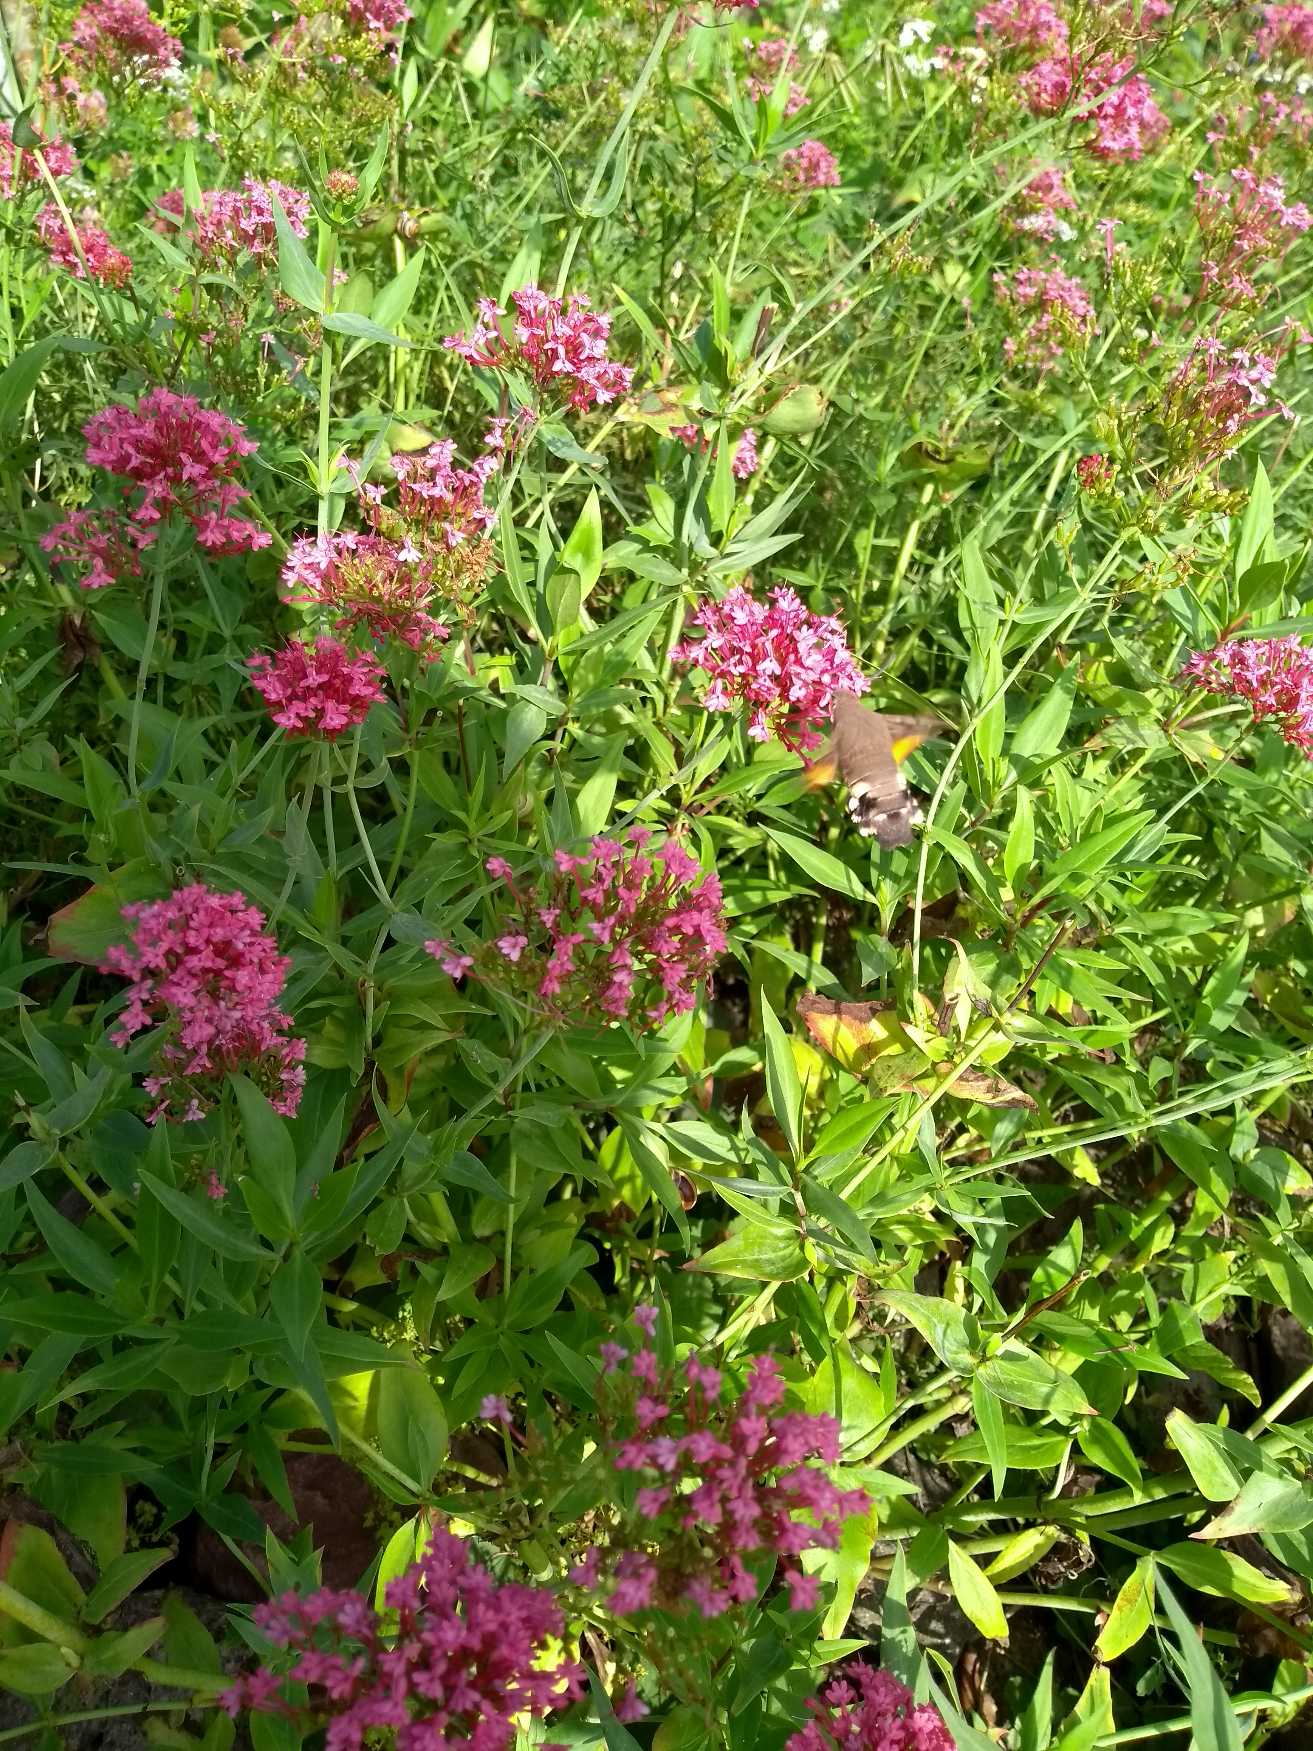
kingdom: Animalia
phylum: Arthropoda
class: Insecta
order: Lepidoptera
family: Sphingidae
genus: Macroglossum
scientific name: Macroglossum stellatarum
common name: Duehale
